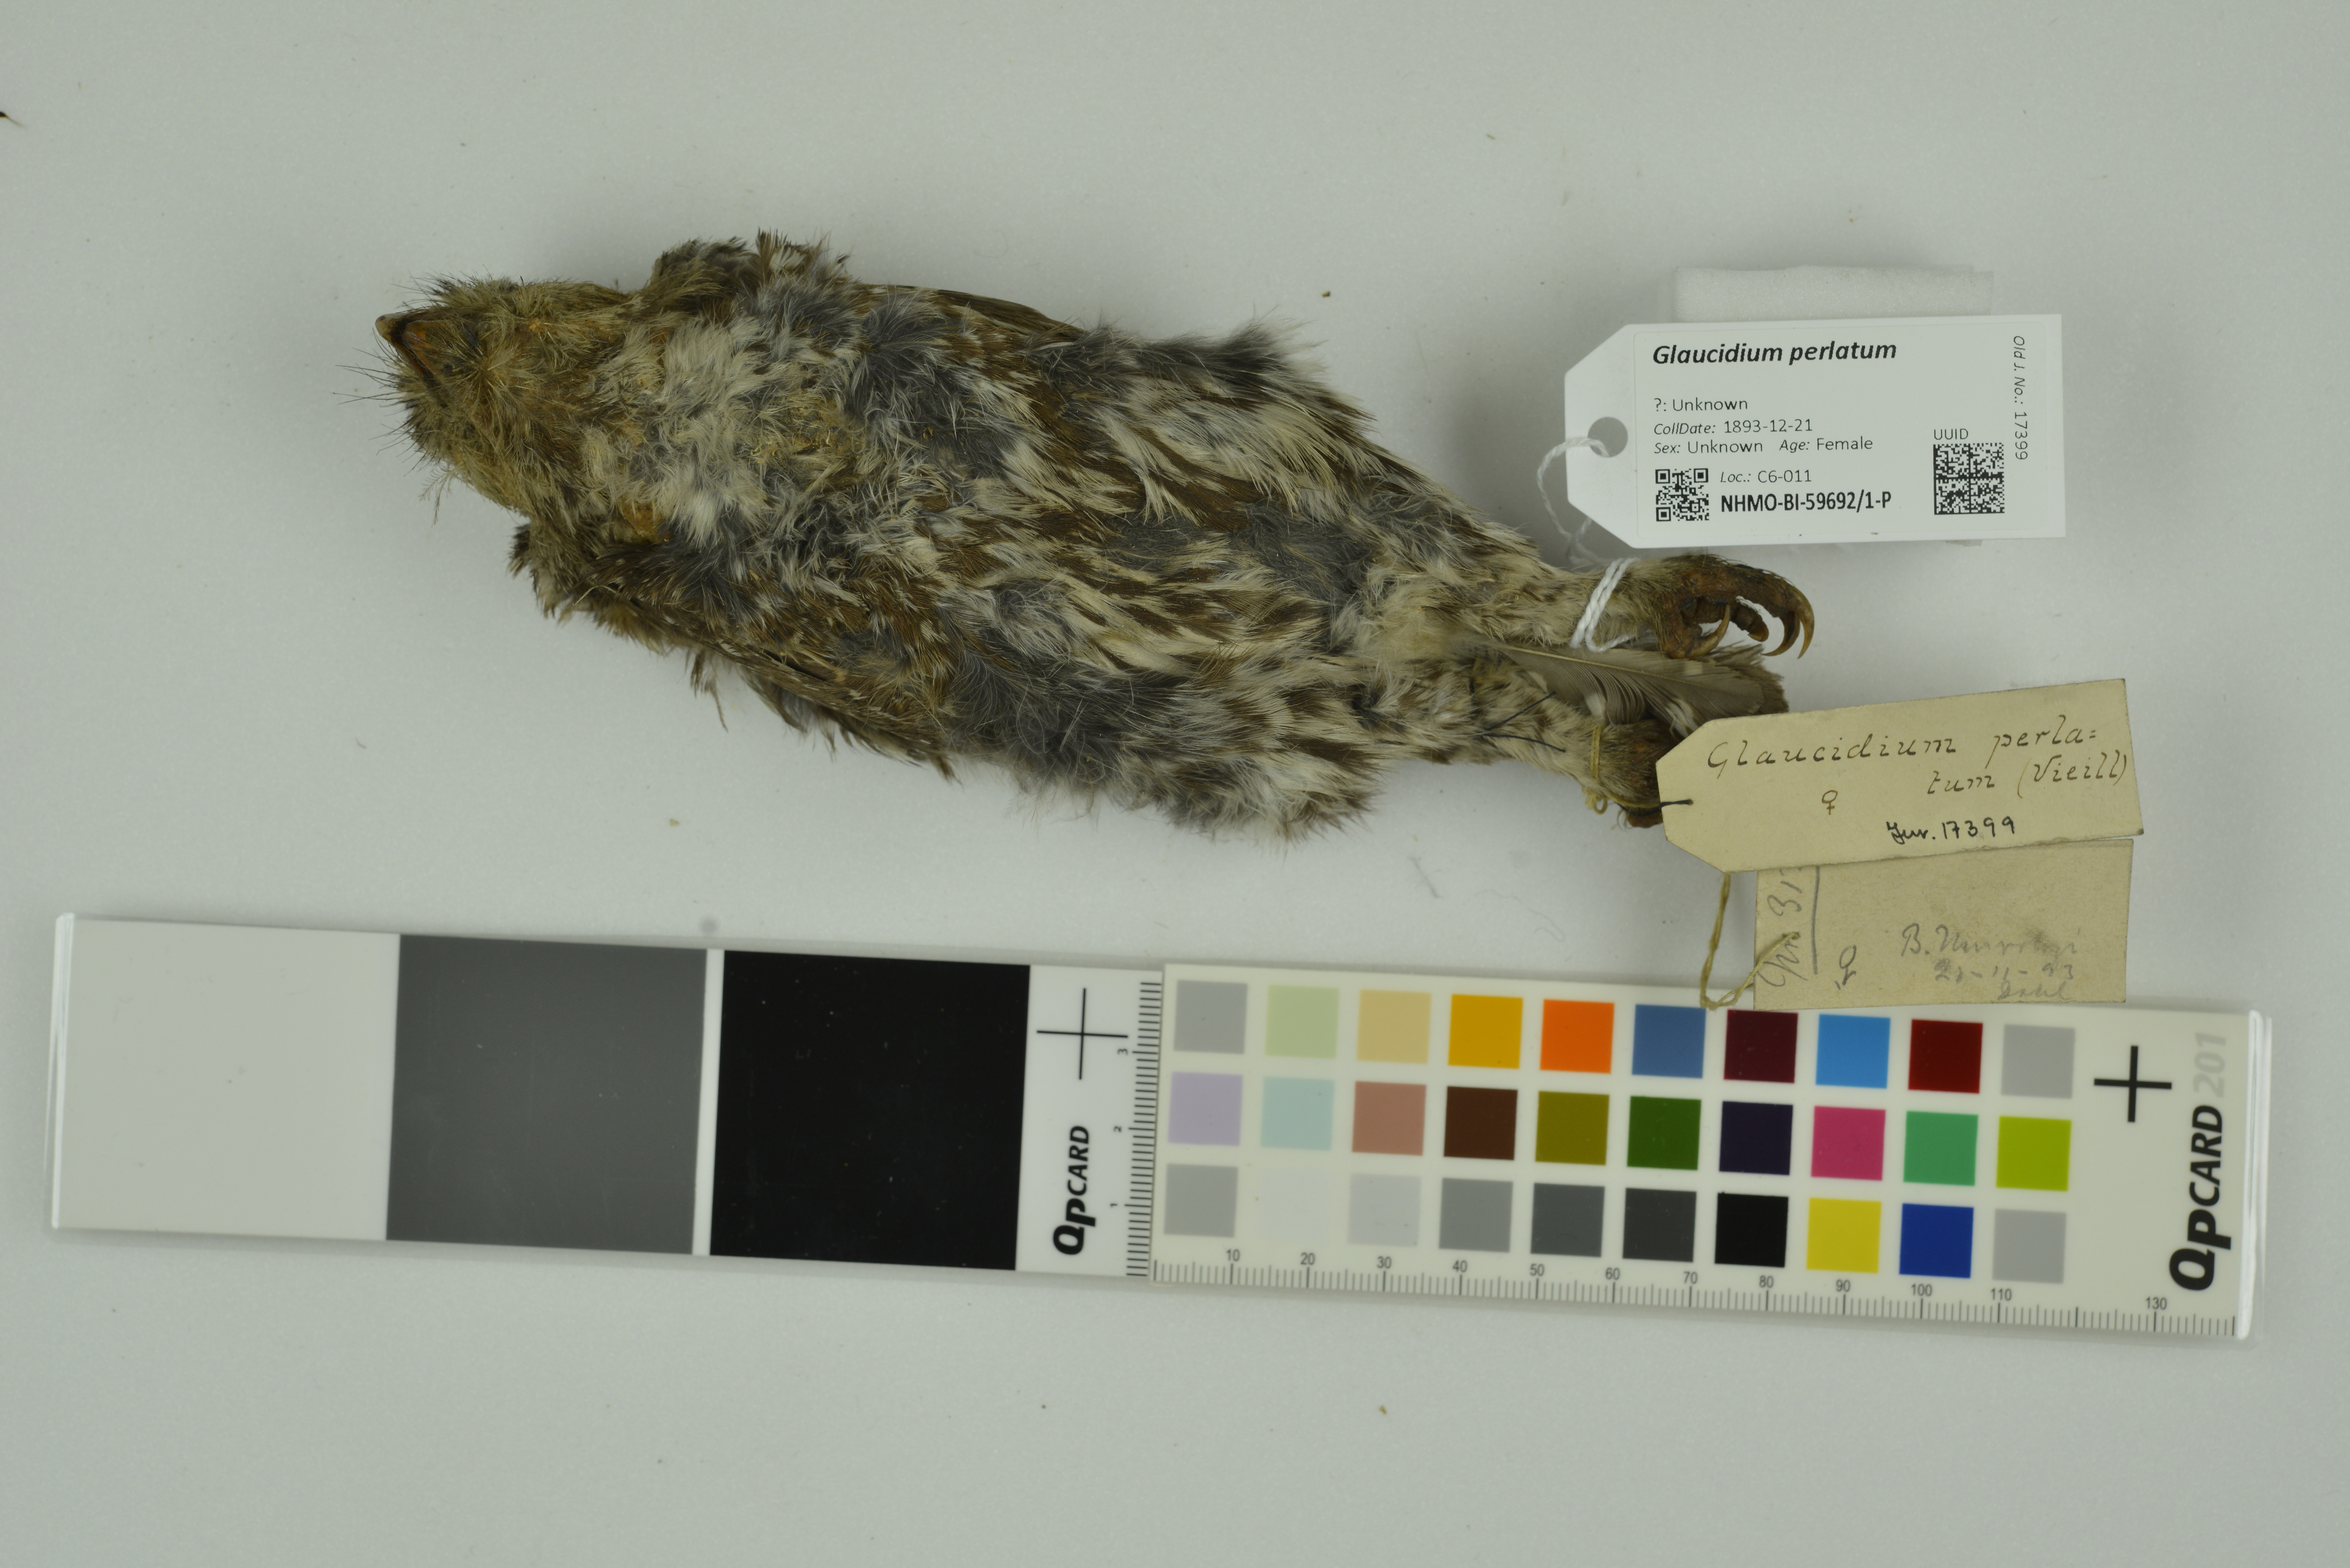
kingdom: Animalia
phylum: Chordata
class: Aves
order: Strigiformes
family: Strigidae
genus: Glaucidium
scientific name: Glaucidium perlatum
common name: Pearl-spotted owlet
